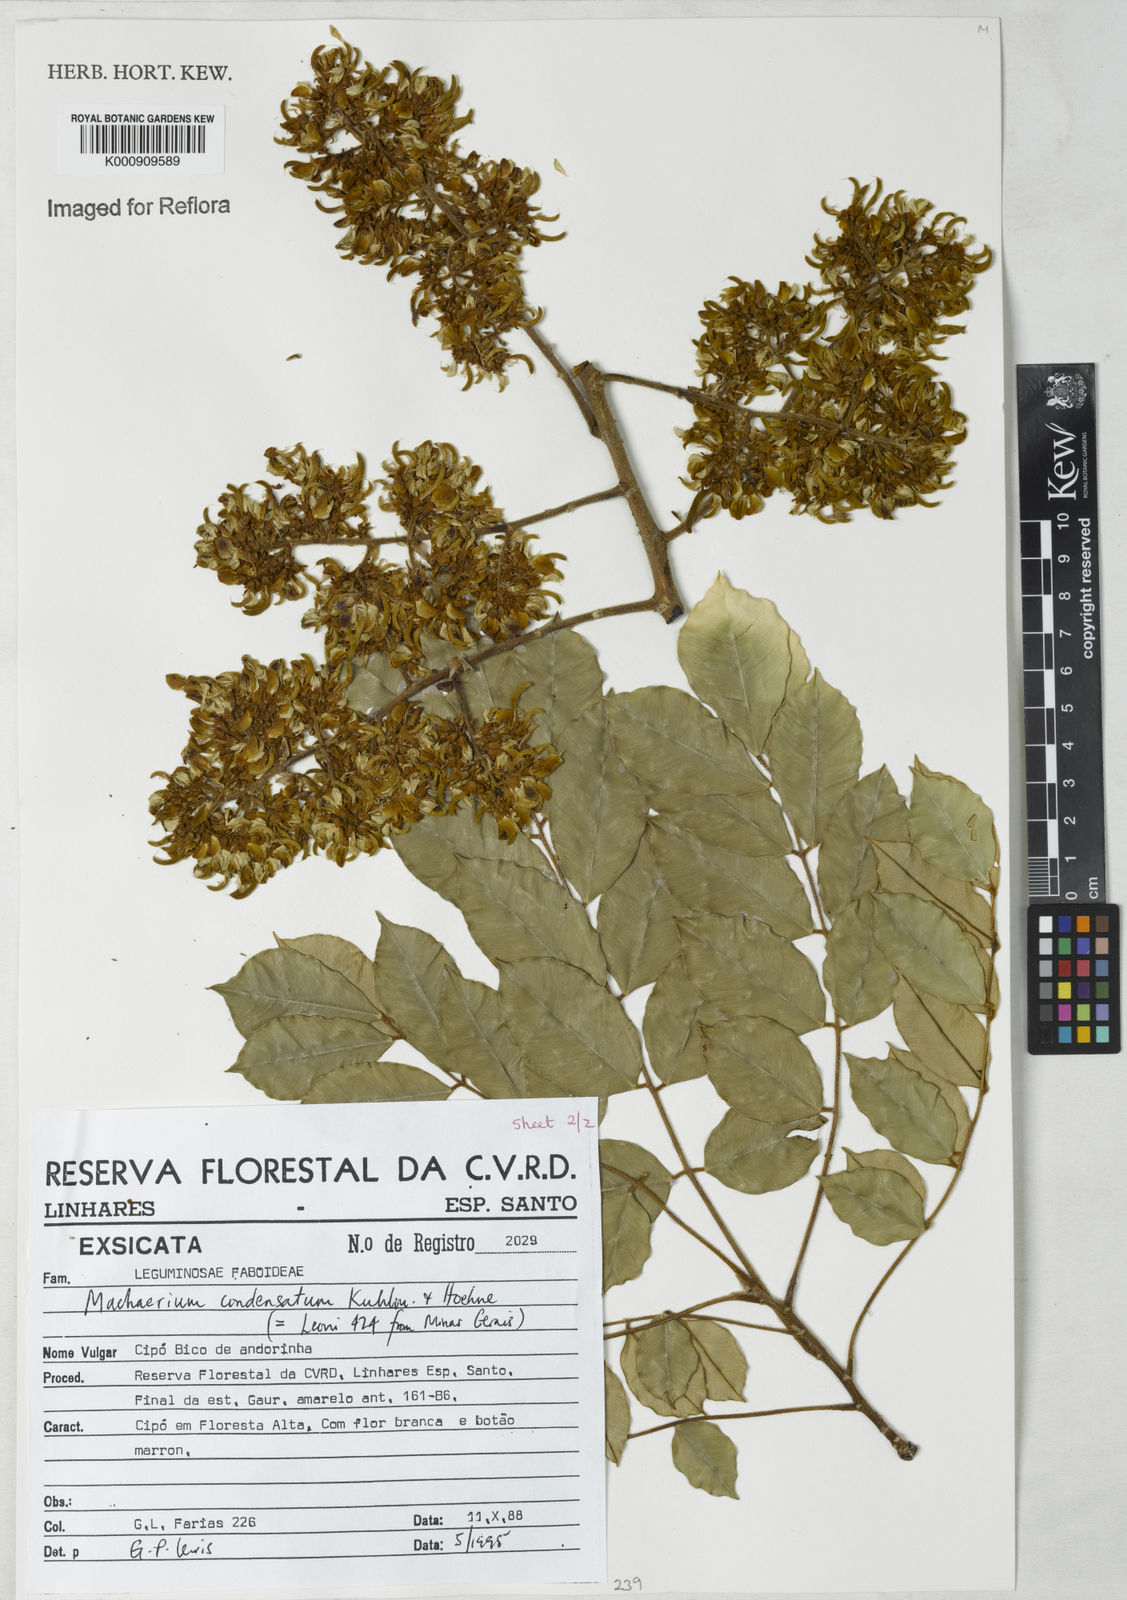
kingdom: Plantae
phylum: Tracheophyta
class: Magnoliopsida
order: Fabales
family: Fabaceae
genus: Machaerium
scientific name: Machaerium condensatum
